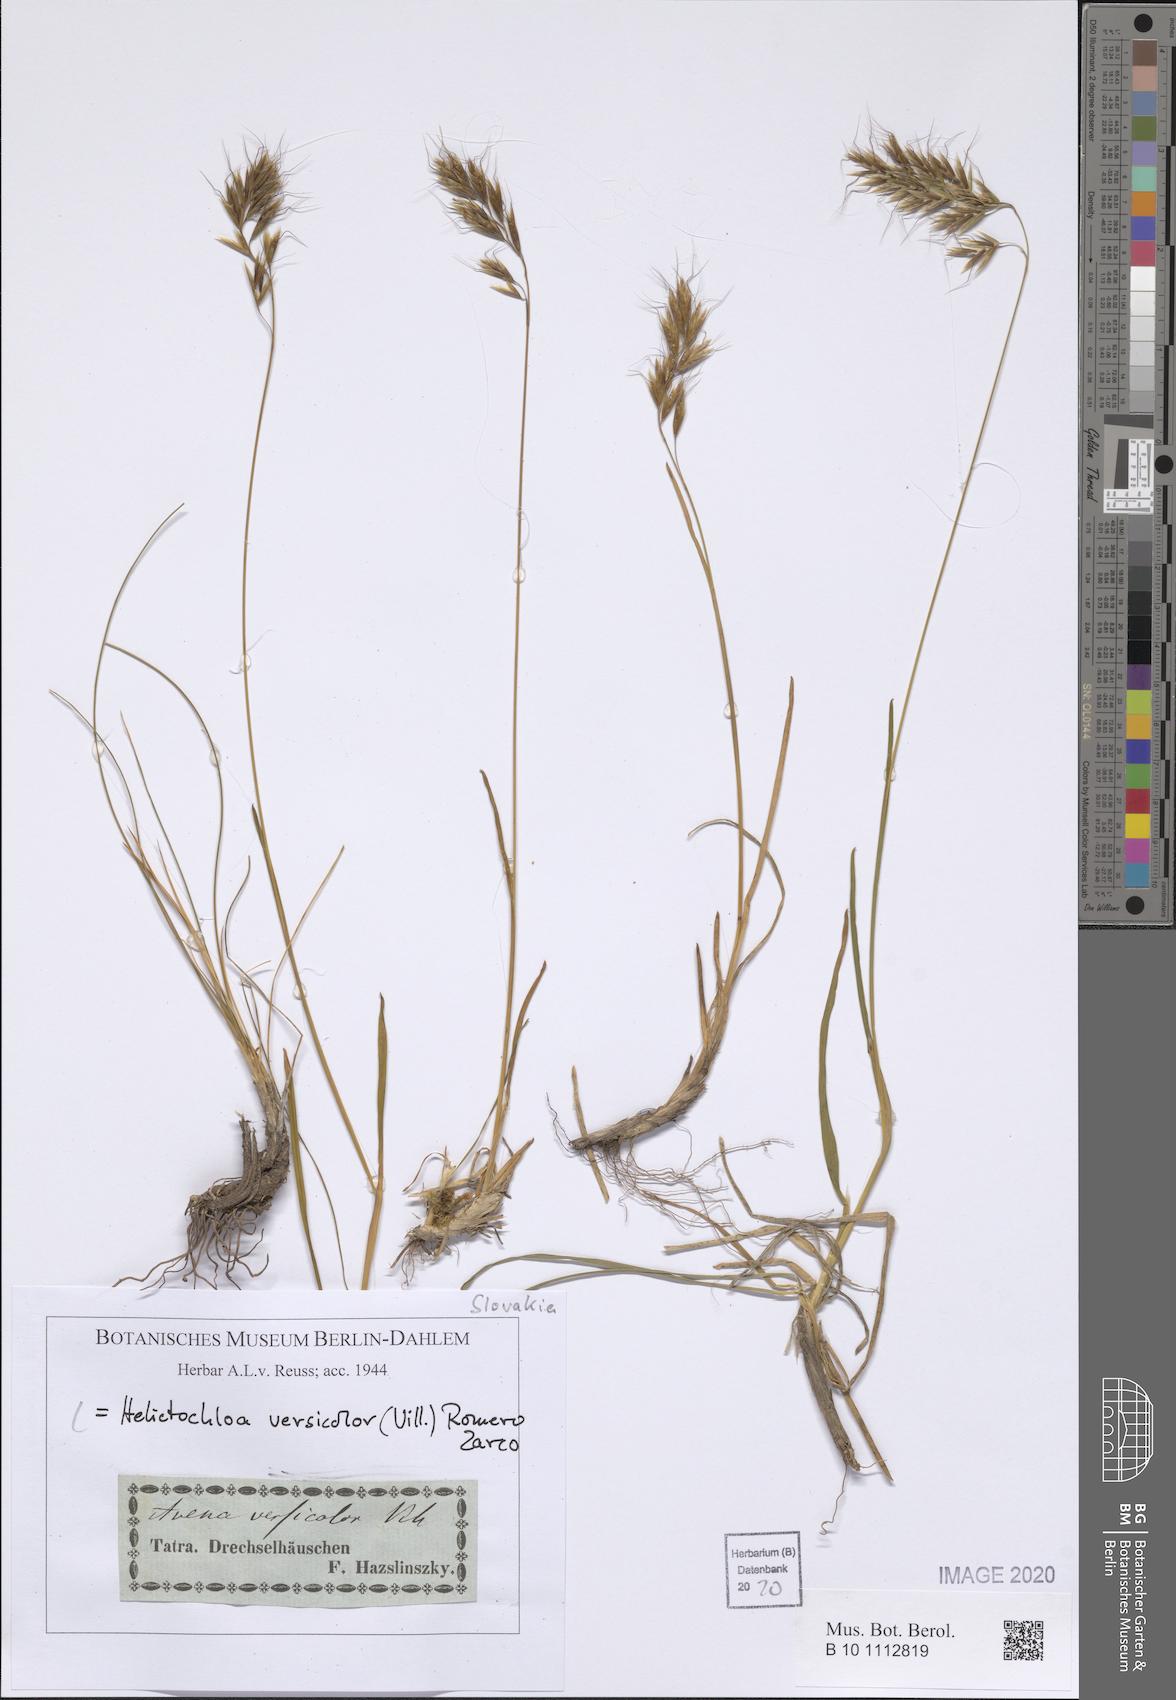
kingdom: Plantae
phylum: Tracheophyta
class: Liliopsida
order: Poales
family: Poaceae
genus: Helictochloa
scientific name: Helictochloa versicolor
